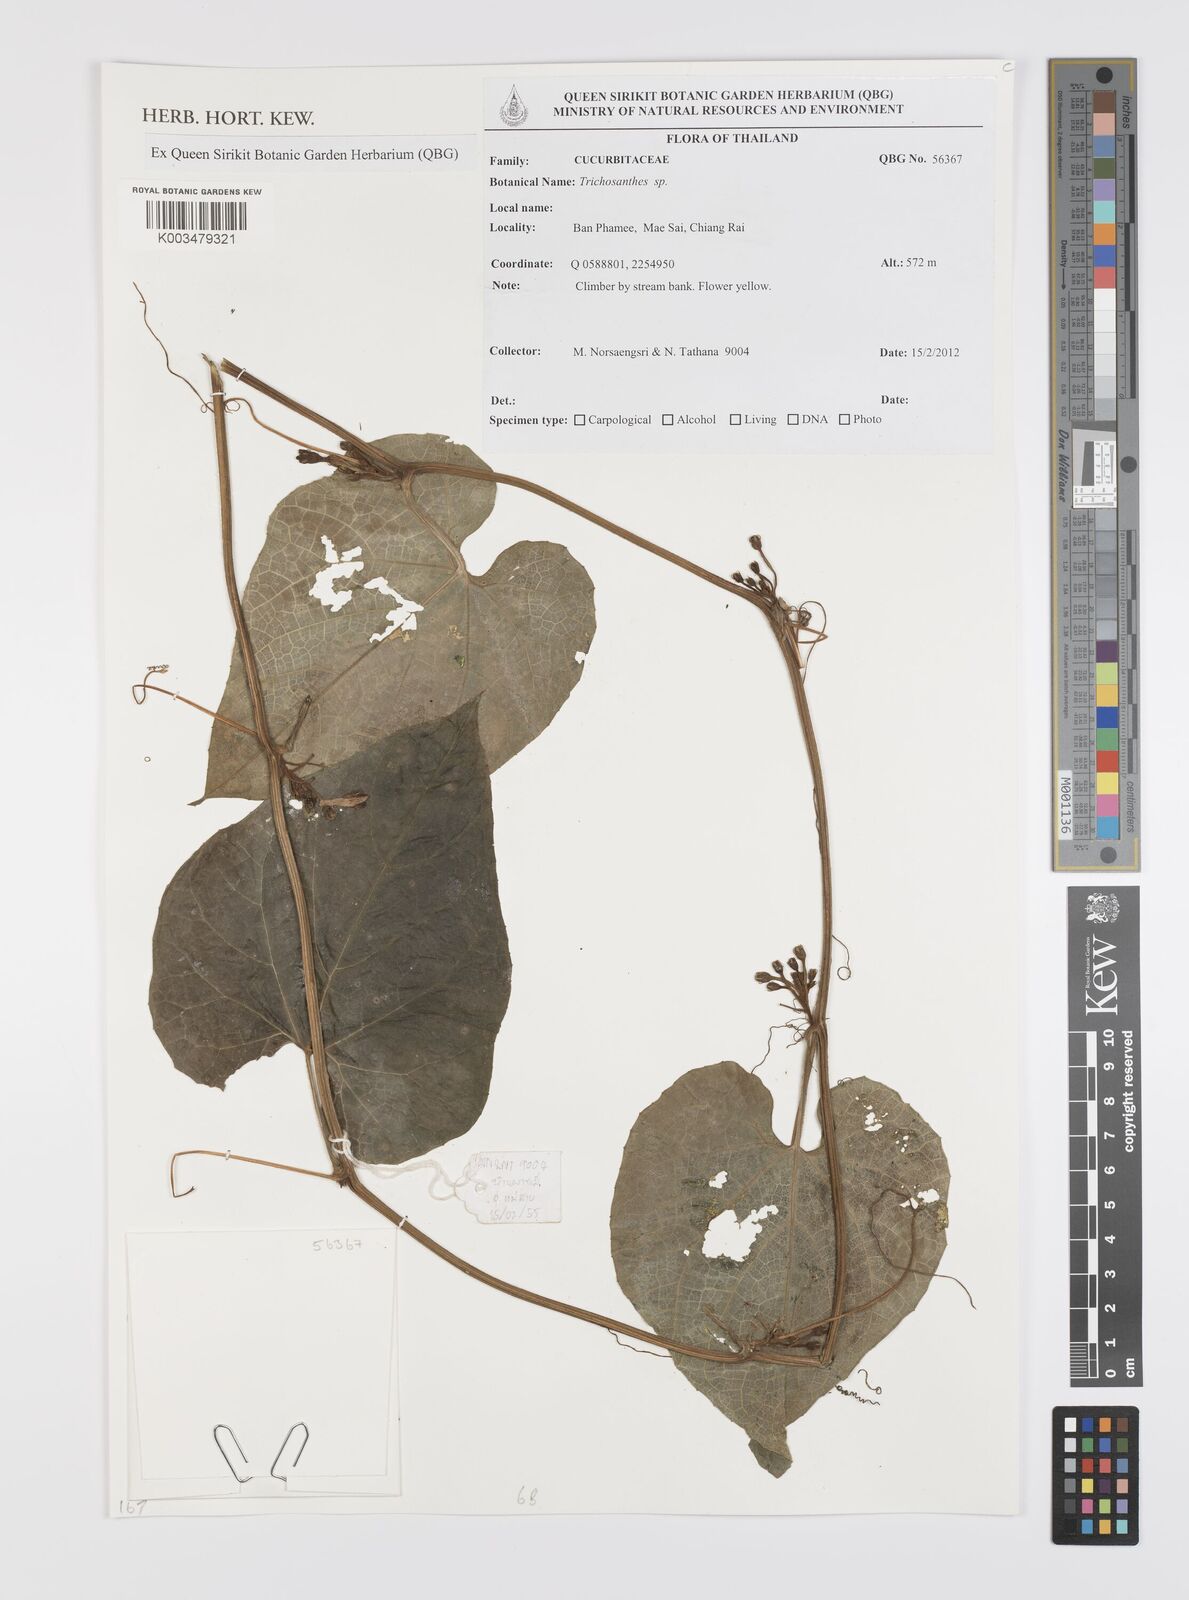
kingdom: Plantae
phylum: Tracheophyta
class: Magnoliopsida
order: Cucurbitales
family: Cucurbitaceae
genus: Trichosanthes
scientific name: Trichosanthes
